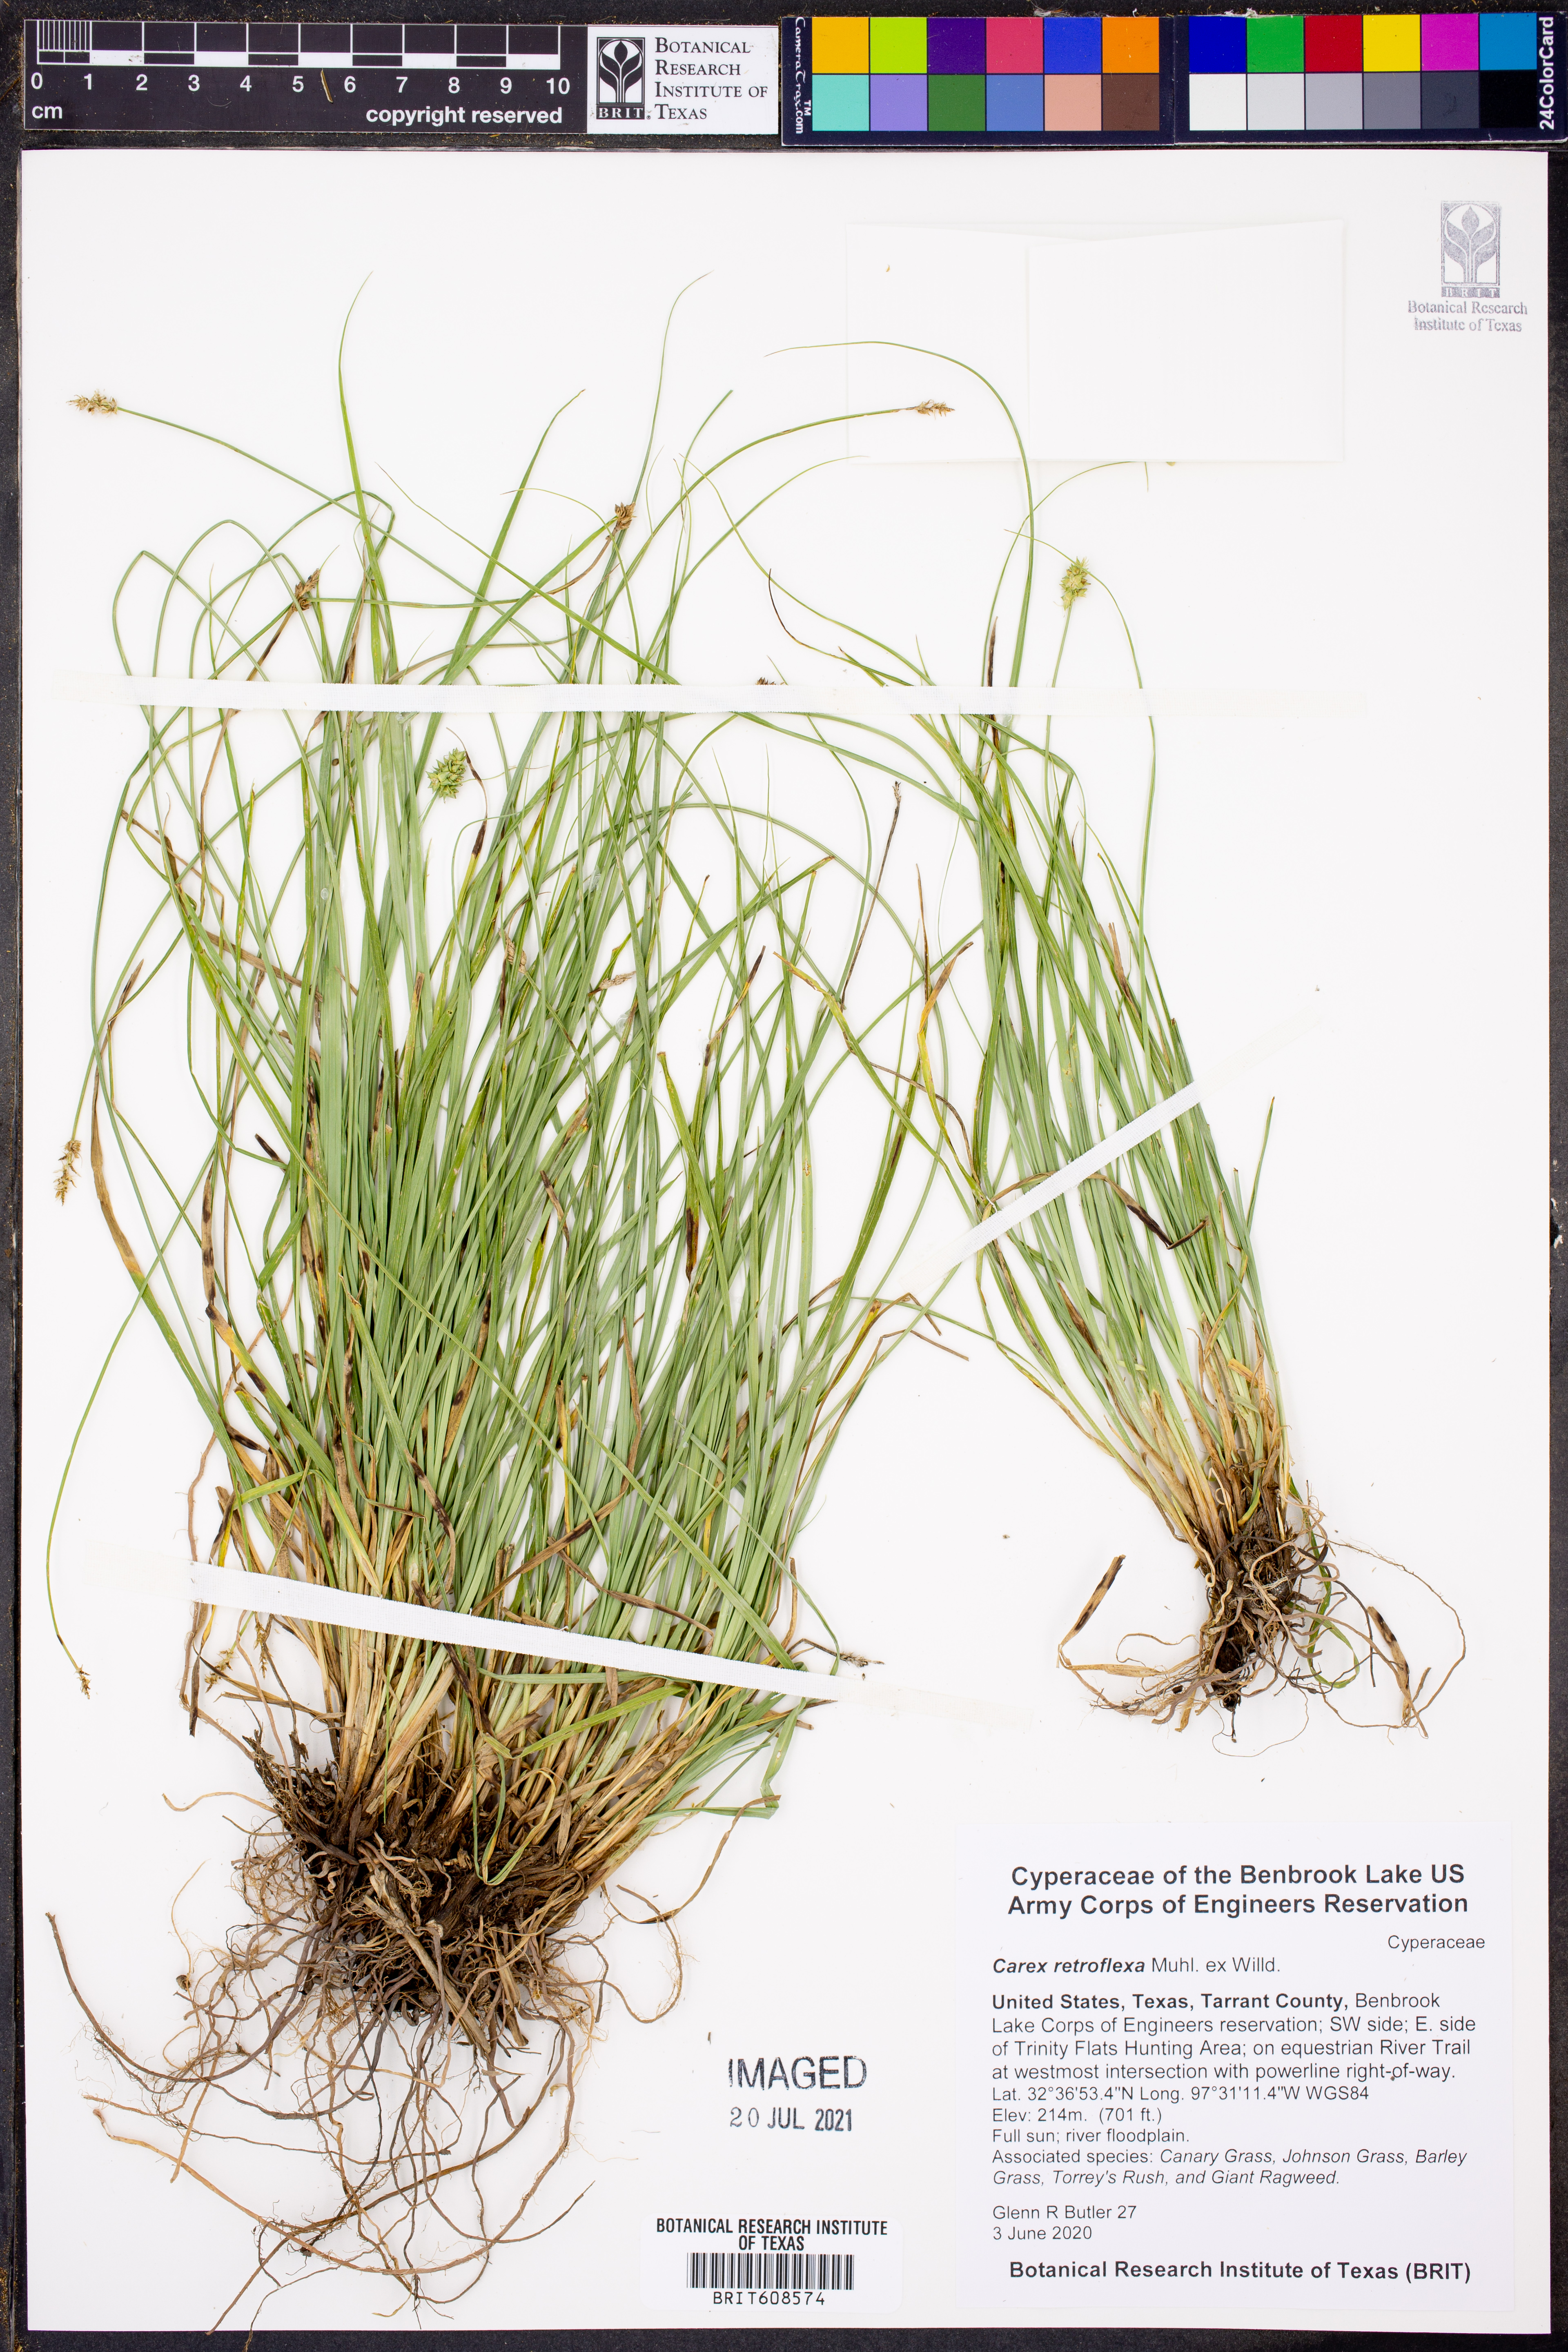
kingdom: Plantae
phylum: Tracheophyta
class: Liliopsida
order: Poales
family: Cyperaceae
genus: Carex
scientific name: Carex retroflexa
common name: Reflexed sedge
